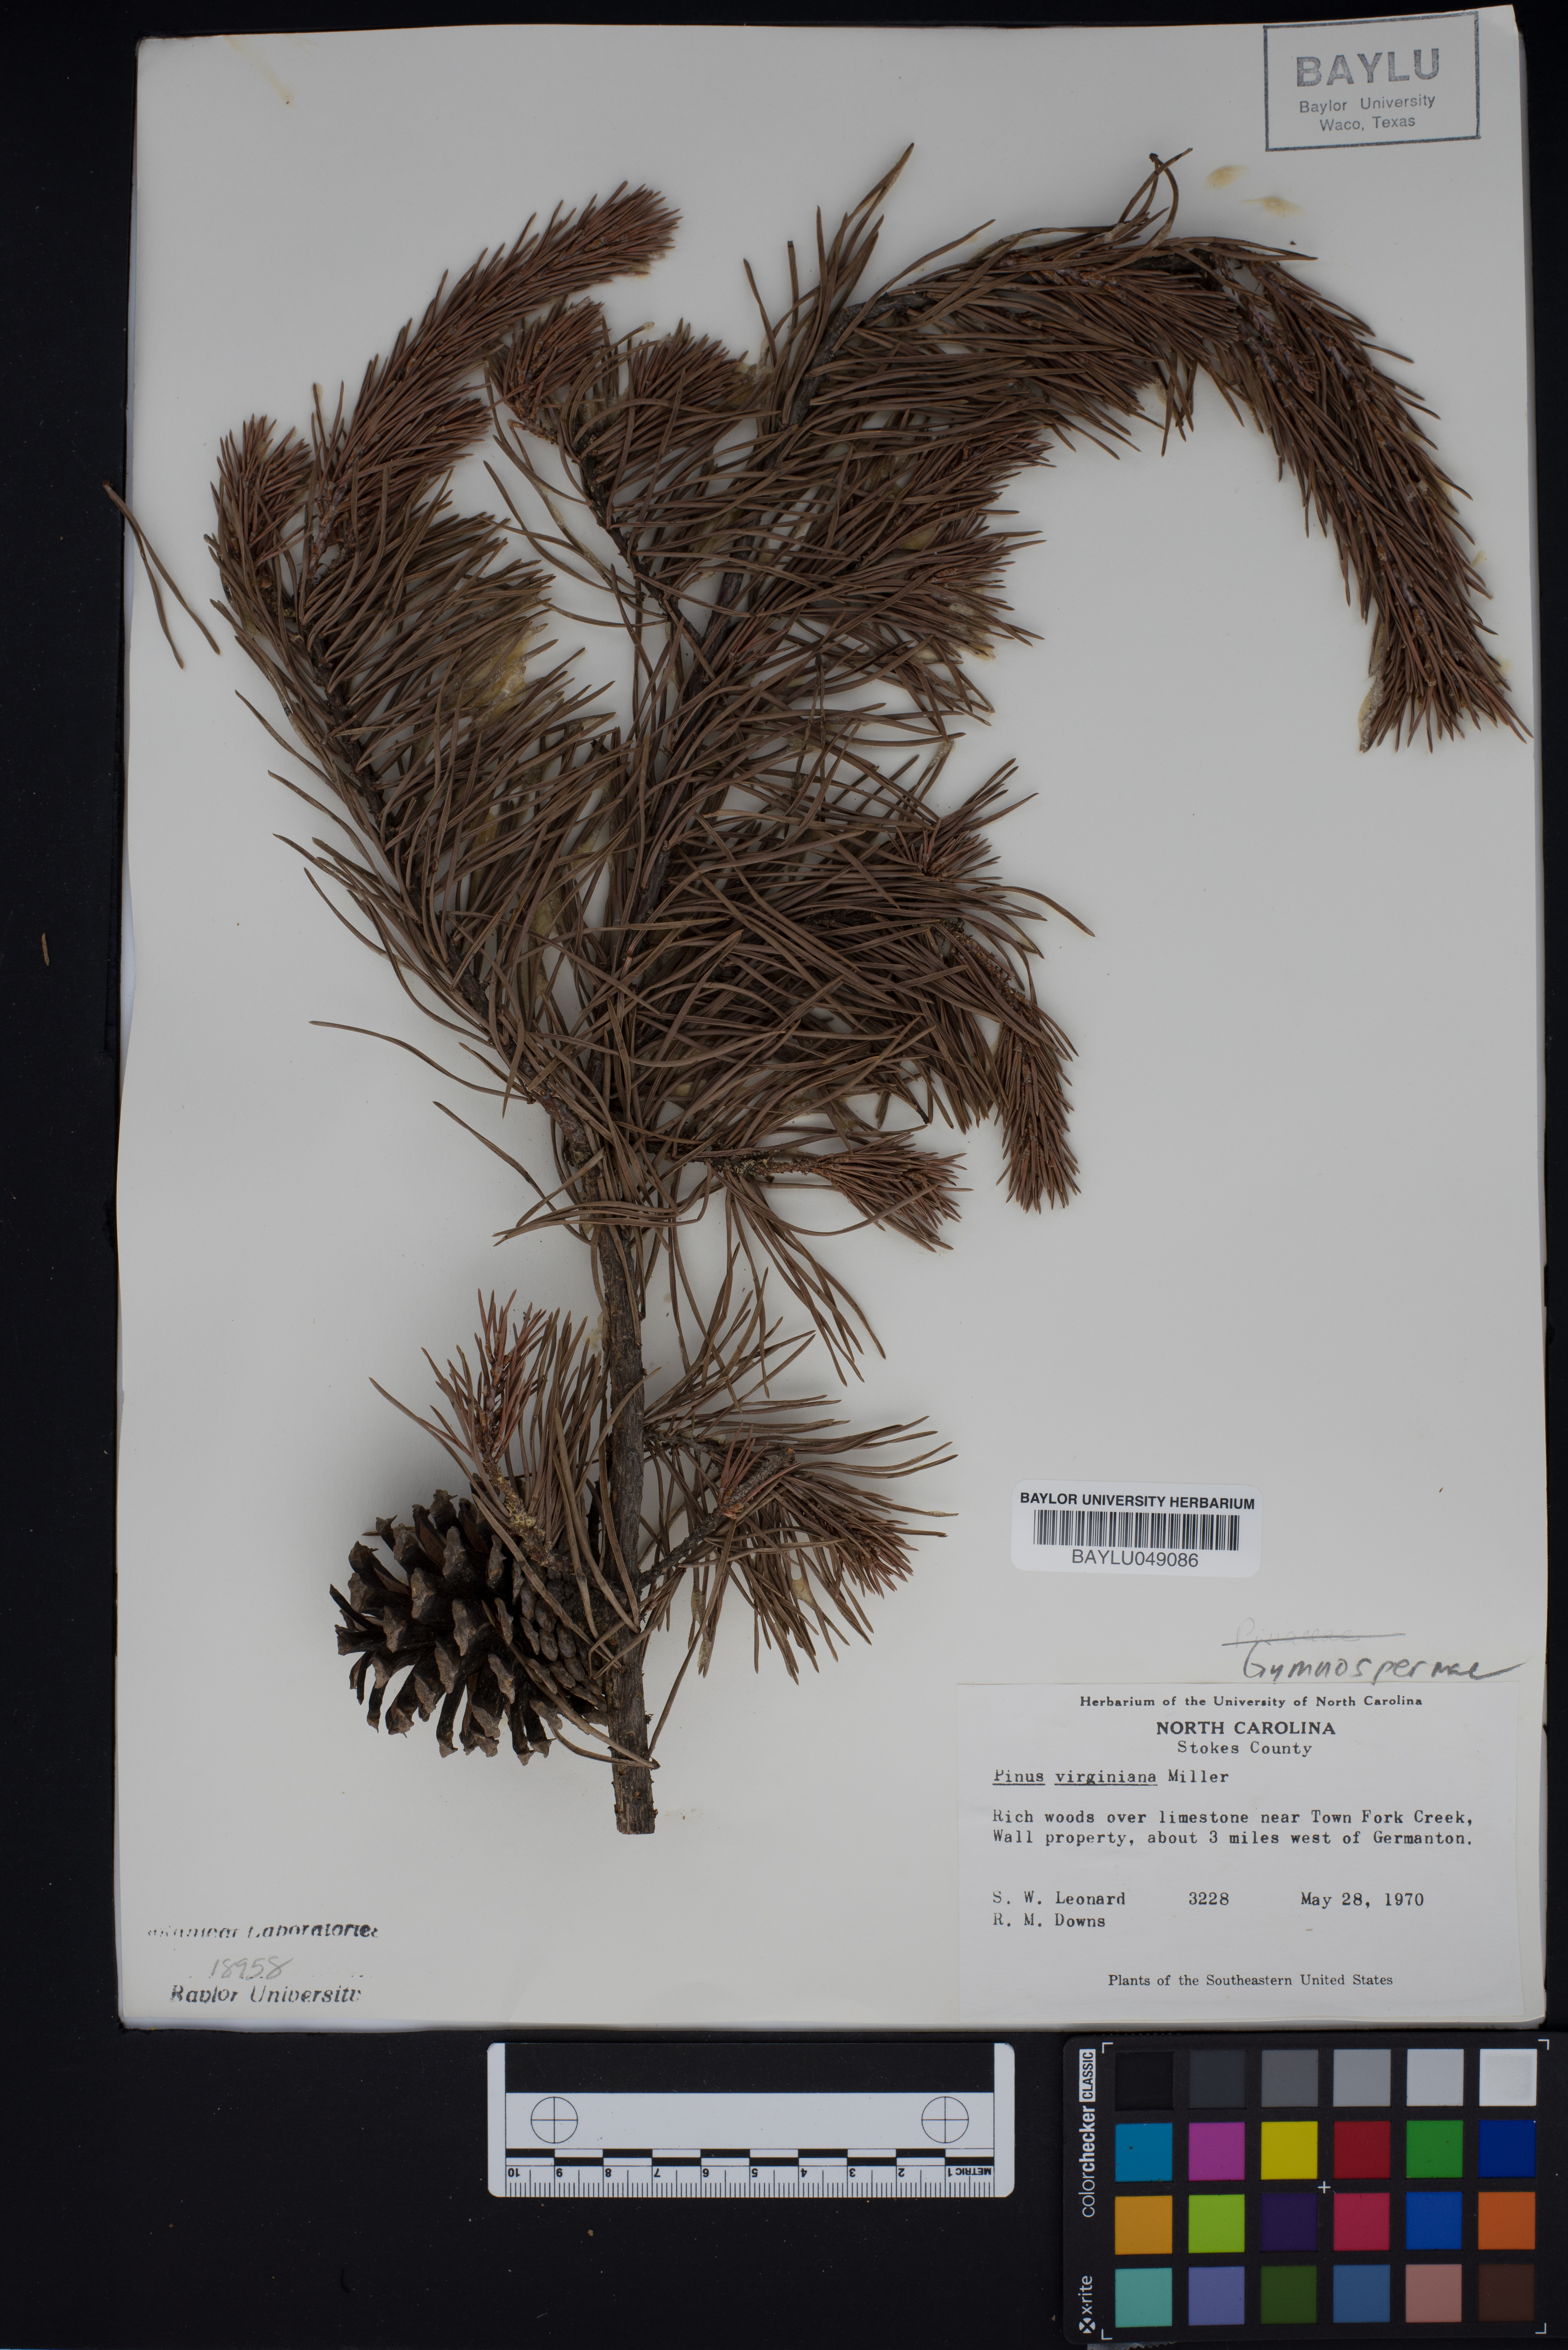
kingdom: Plantae
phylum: Tracheophyta
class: Pinopsida
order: Pinales
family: Pinaceae
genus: Pinus
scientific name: Pinus virginiana
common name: Scrub pine
